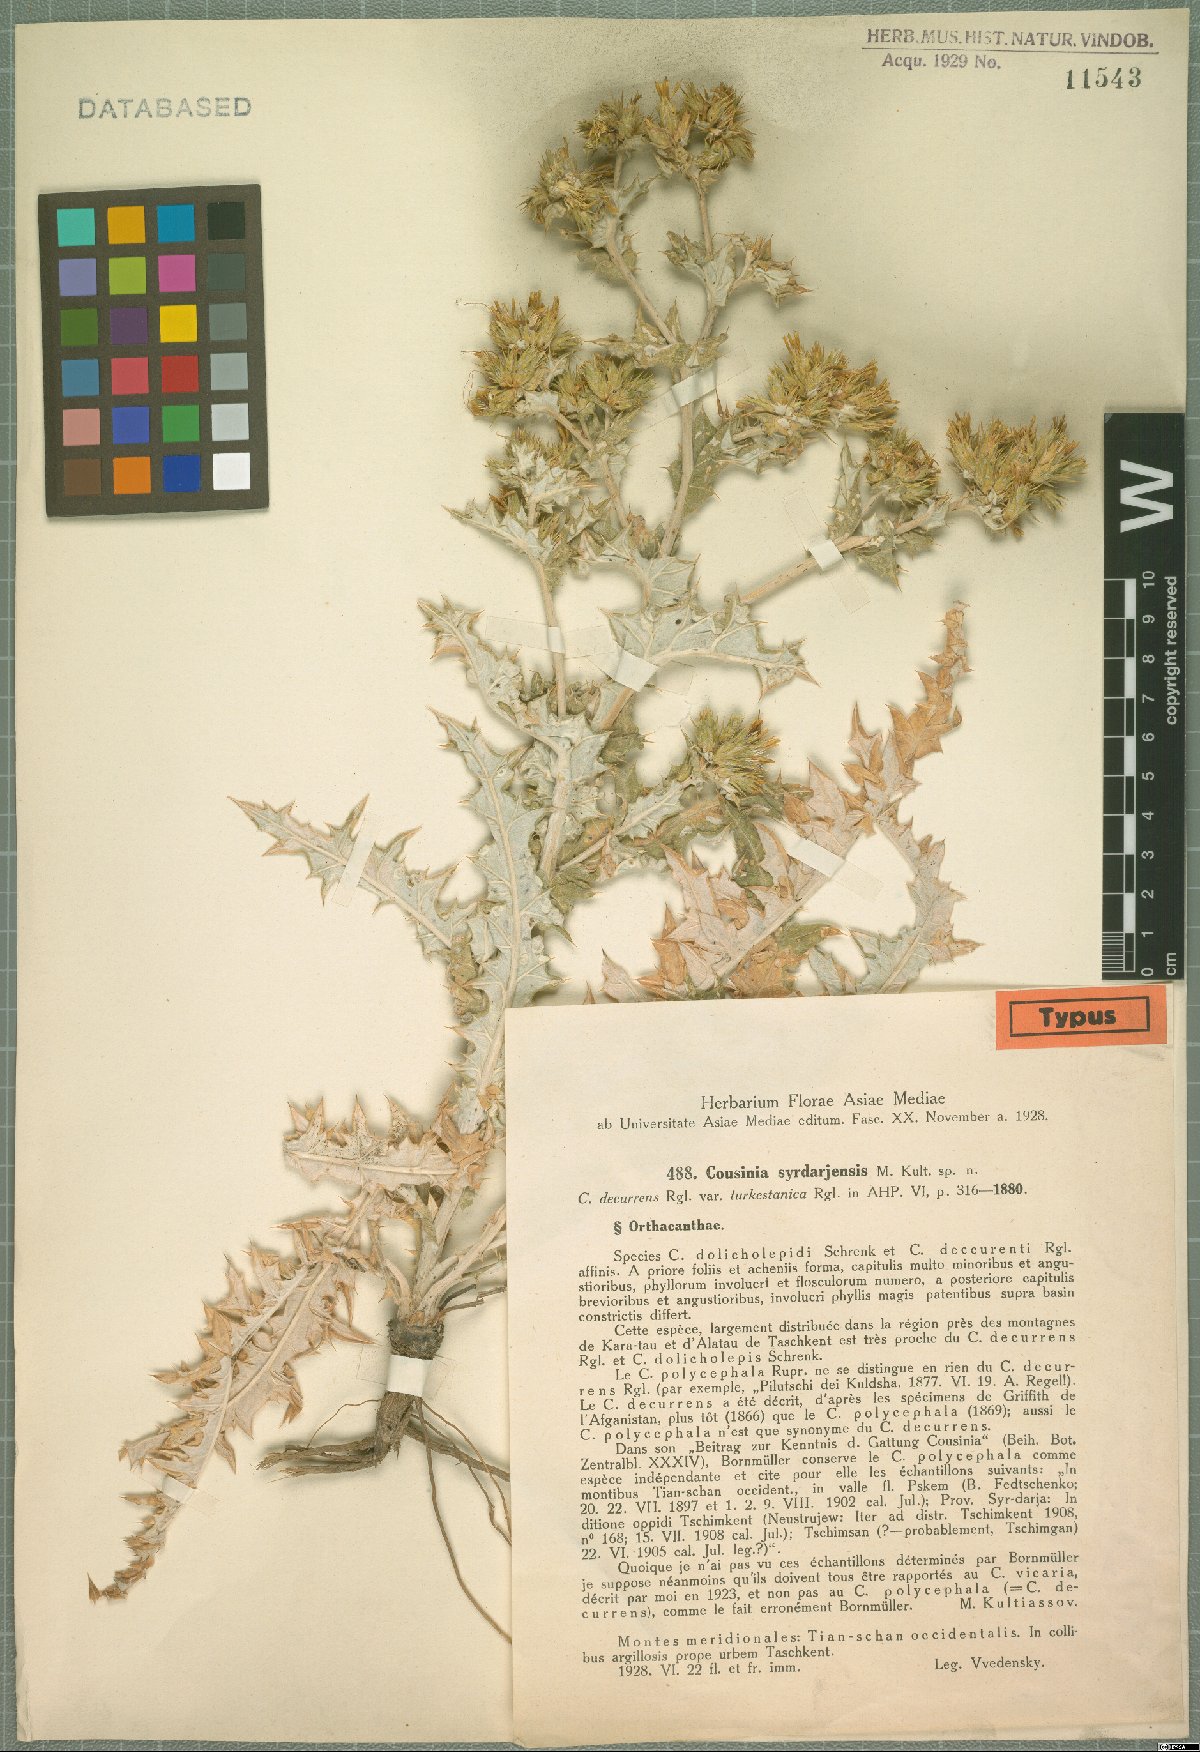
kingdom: Plantae
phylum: Tracheophyta
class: Magnoliopsida
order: Asterales
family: Asteraceae
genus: Cousinia
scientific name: Cousinia turkestanica
